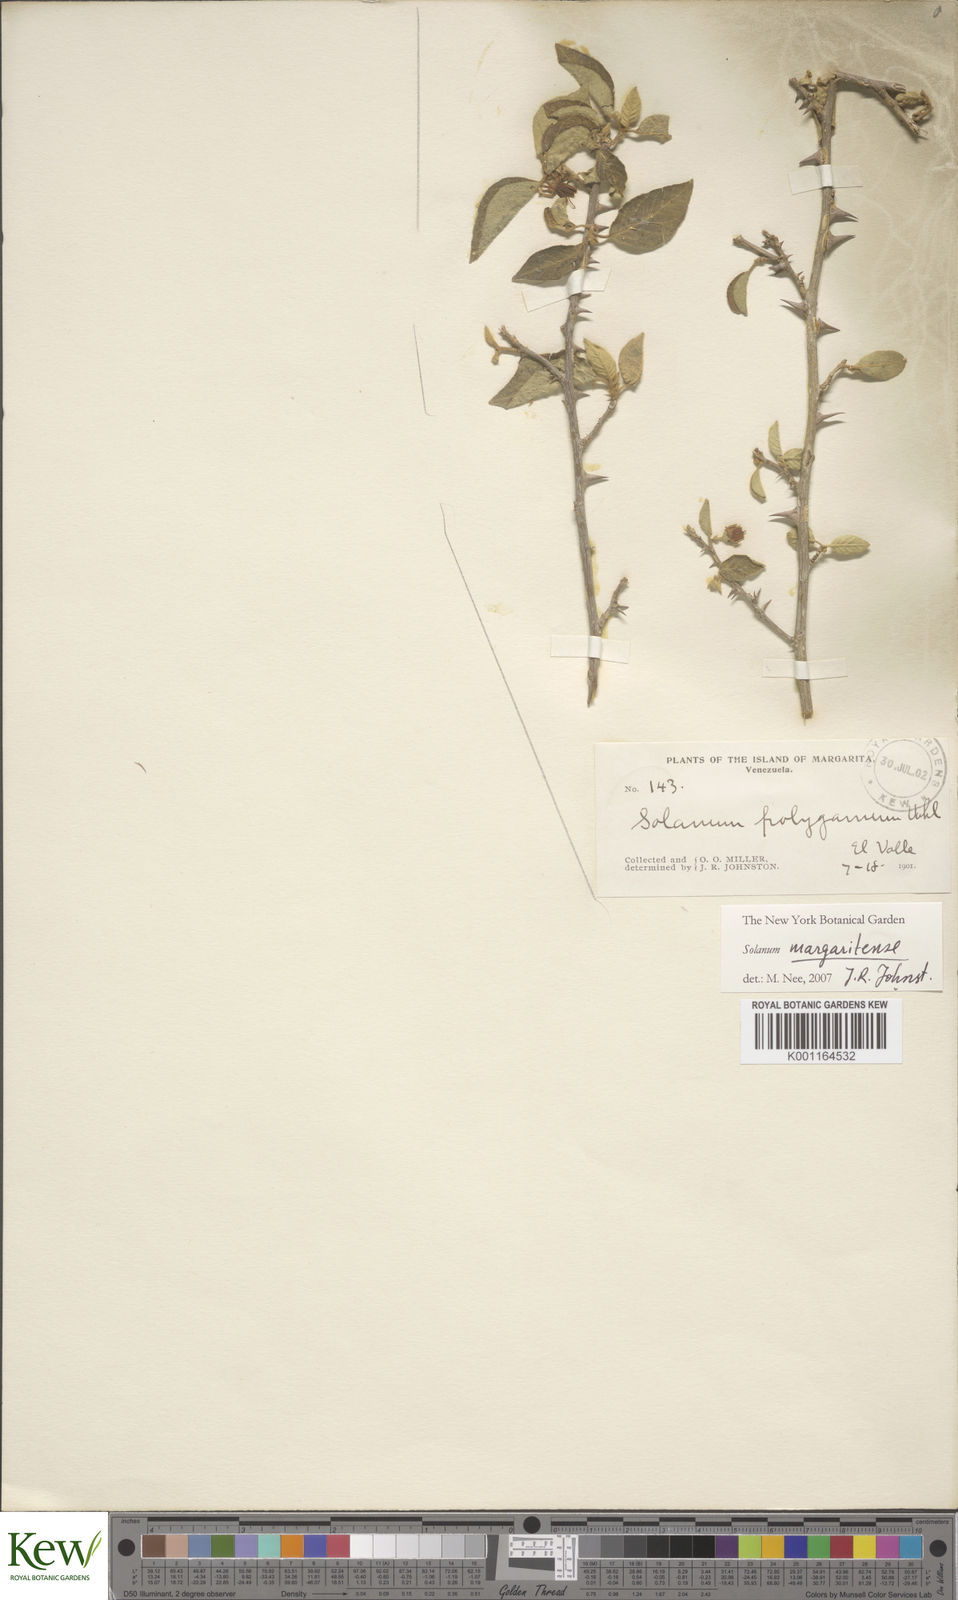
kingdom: Plantae
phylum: Tracheophyta
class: Magnoliopsida
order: Solanales
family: Solanaceae
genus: Solanum
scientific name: Solanum gardneri
